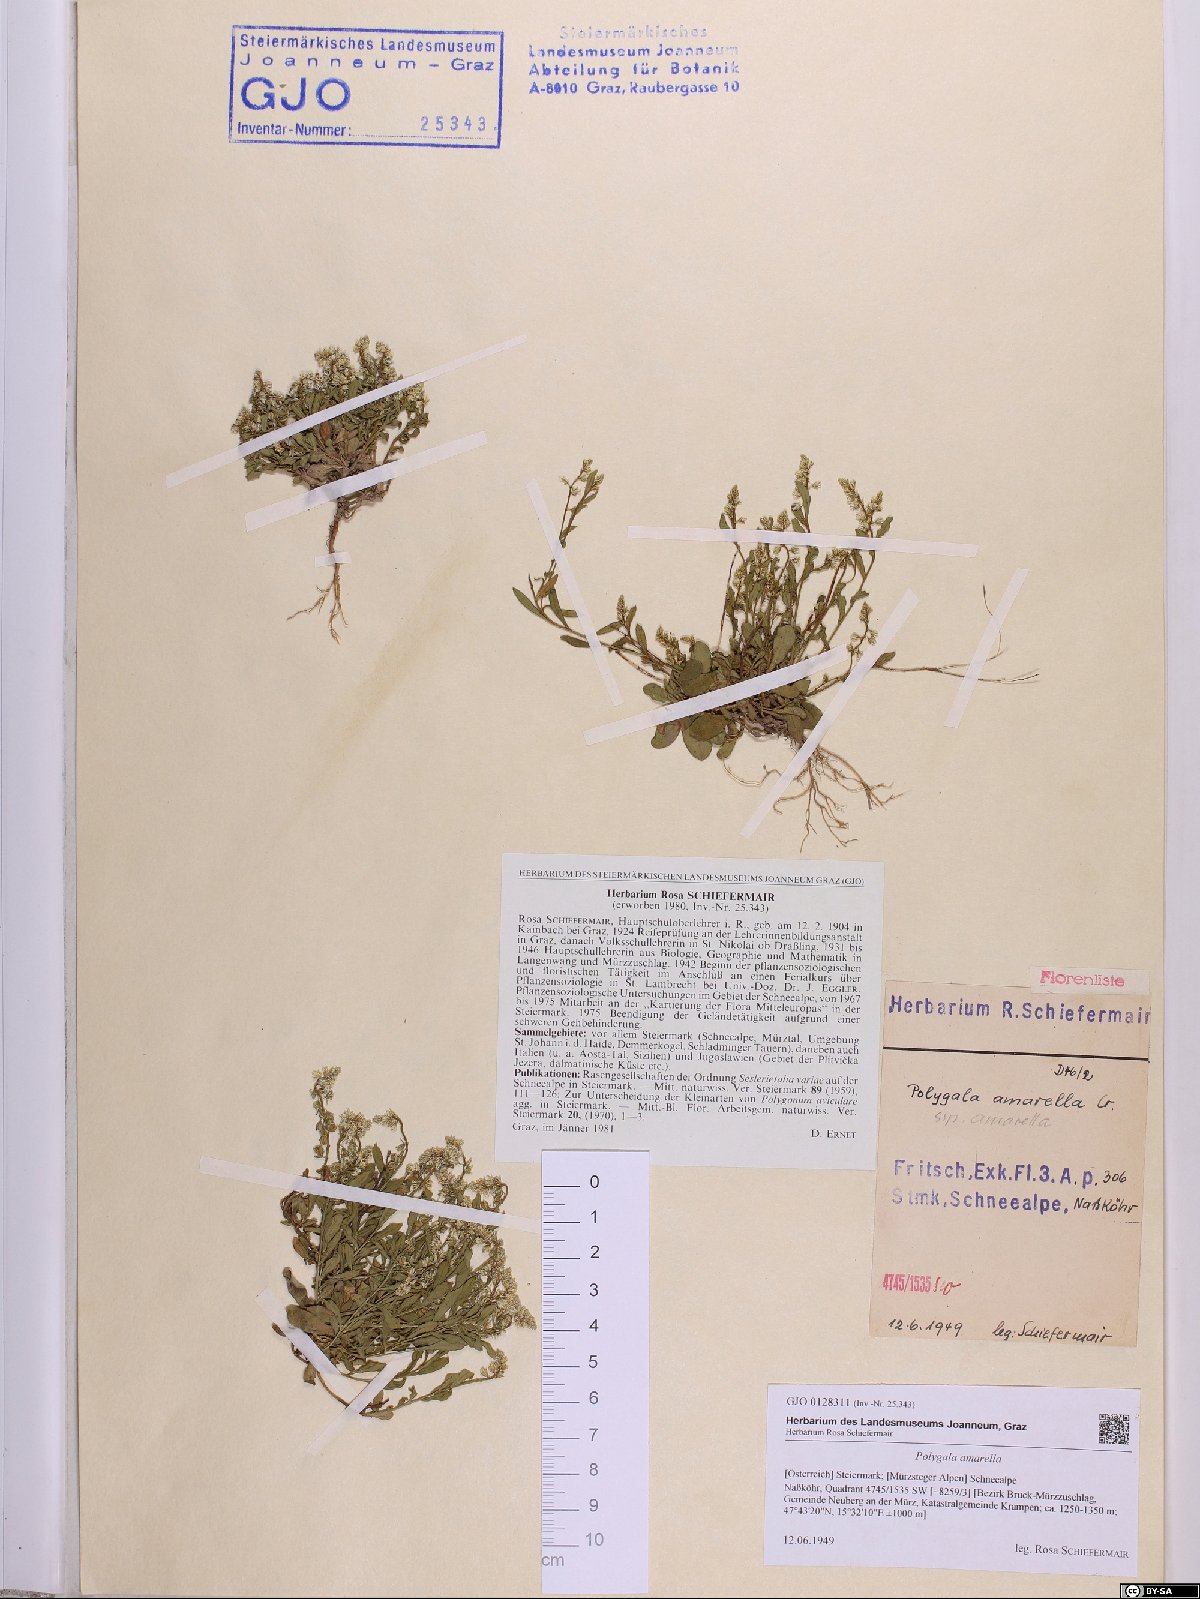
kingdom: Plantae
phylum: Tracheophyta
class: Magnoliopsida
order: Fabales
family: Polygalaceae
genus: Polygala
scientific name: Polygala amarella
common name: Dwarf milkwort
